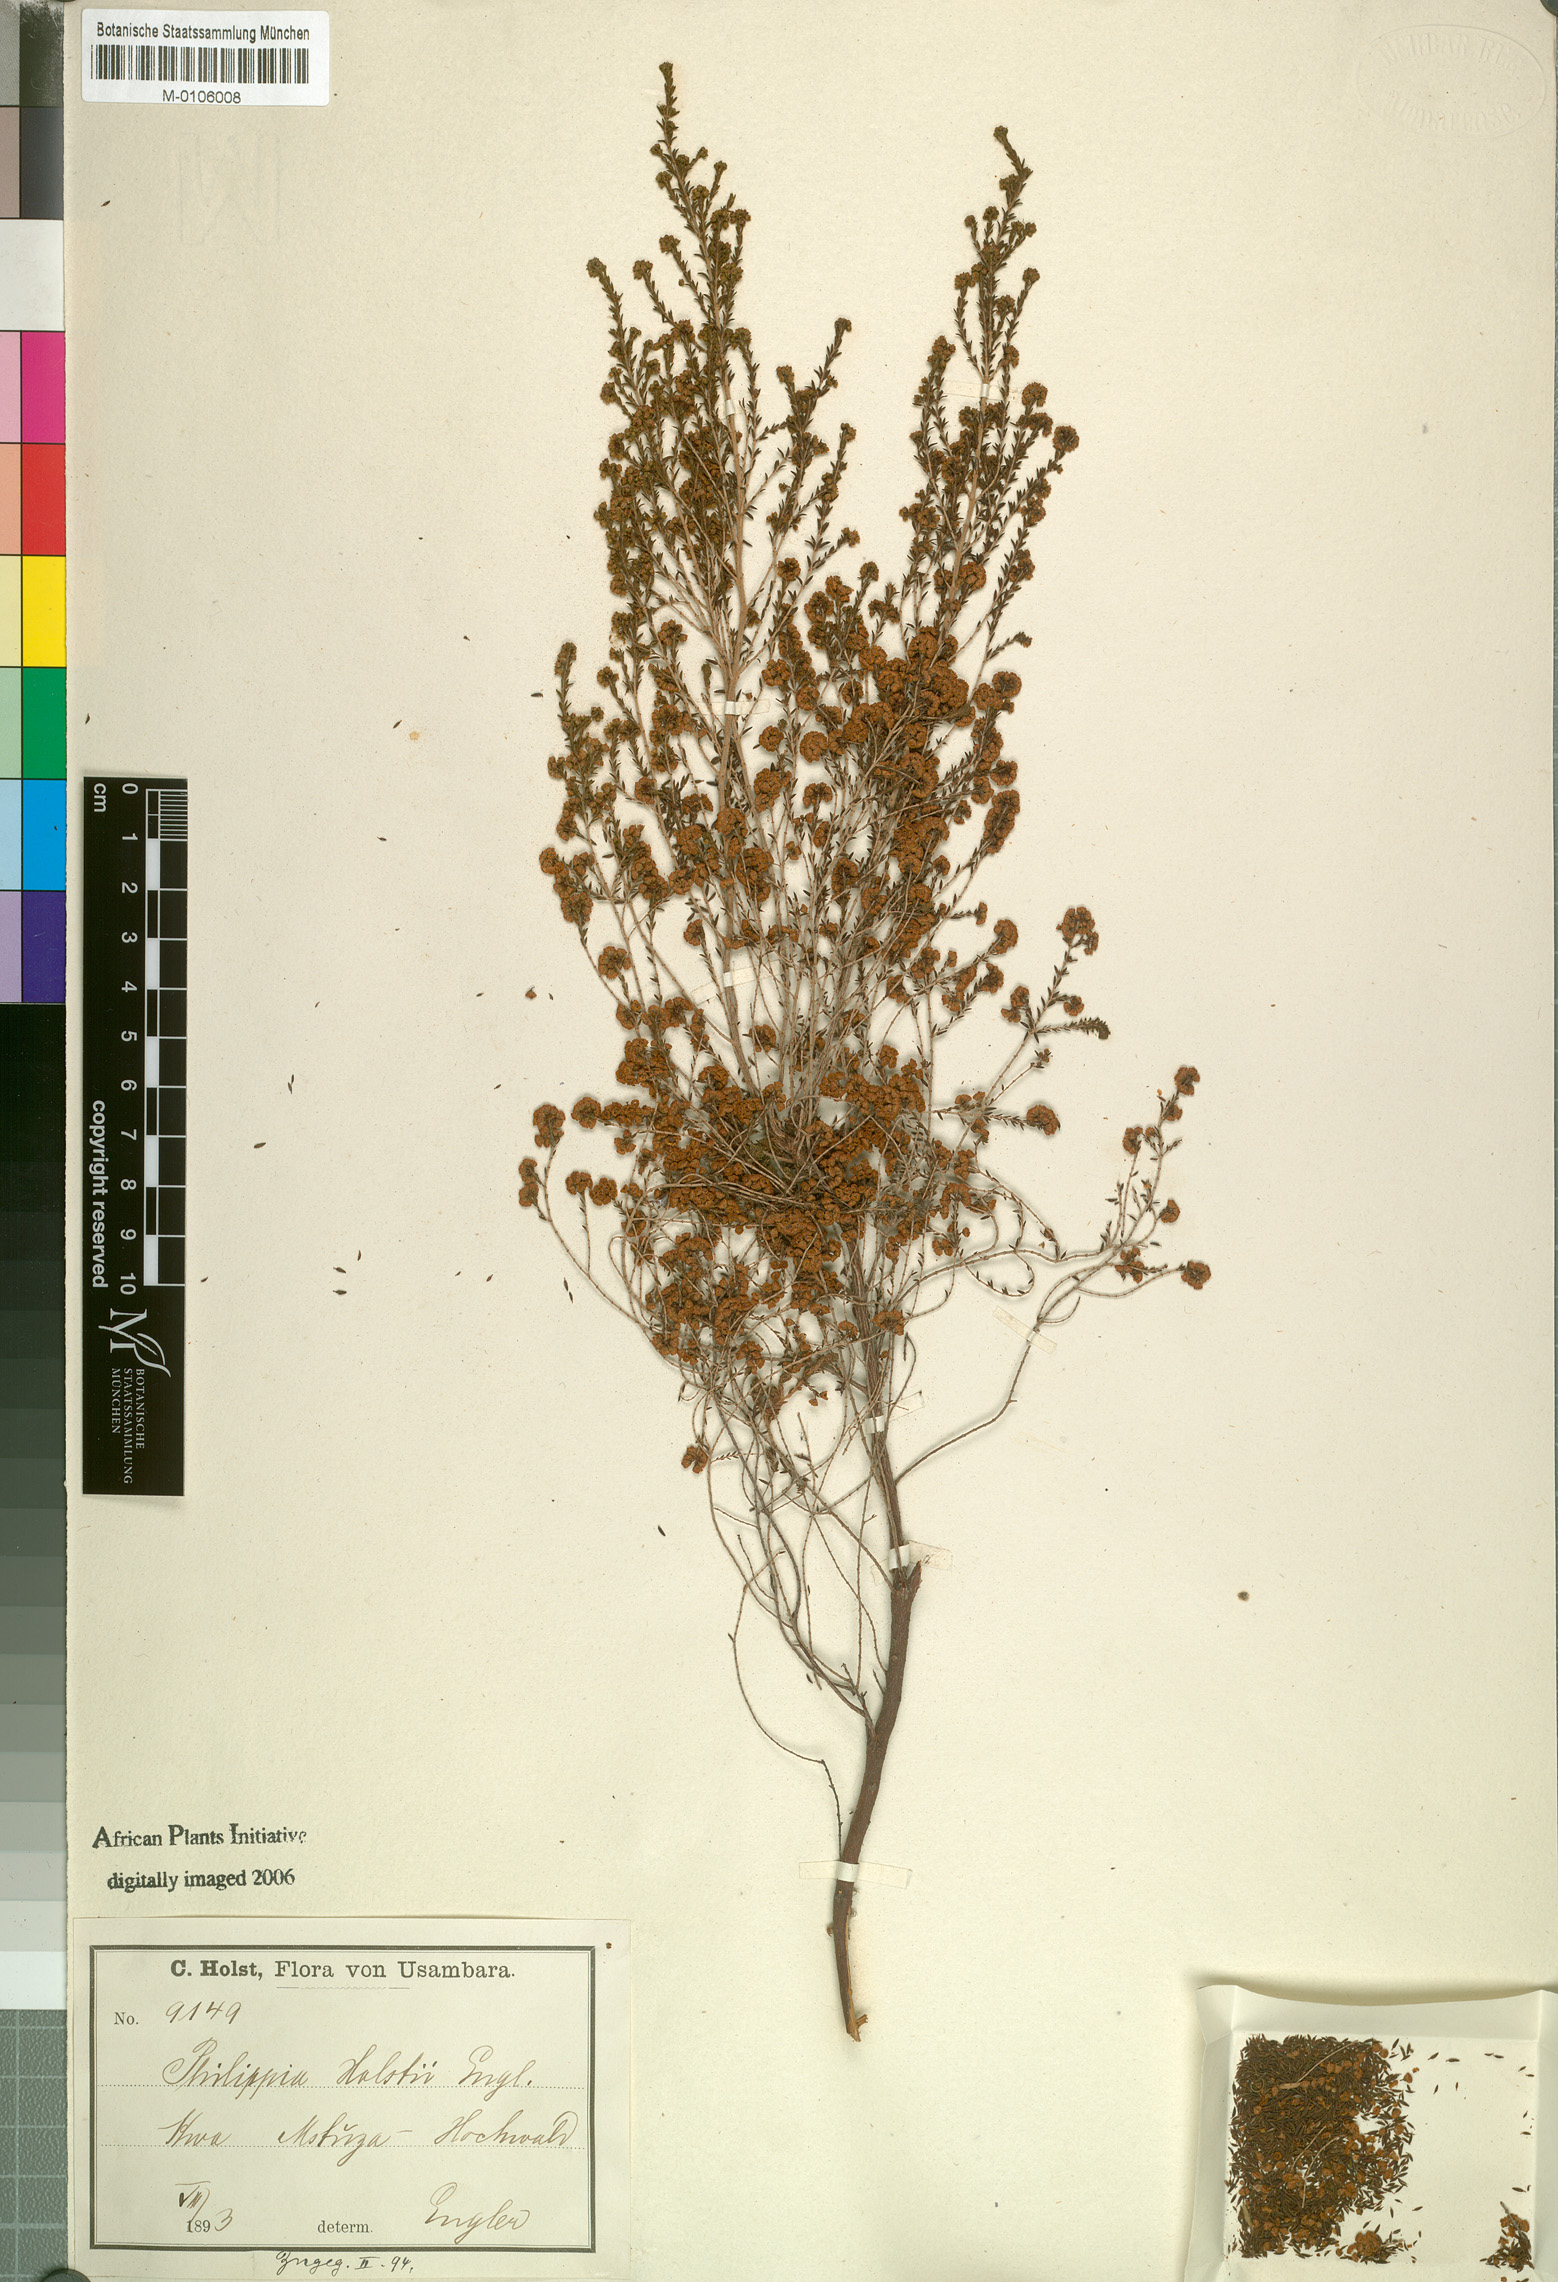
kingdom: Plantae
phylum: Tracheophyta
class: Magnoliopsida
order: Ericales
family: Ericaceae
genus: Erica
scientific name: Erica benguelensis
